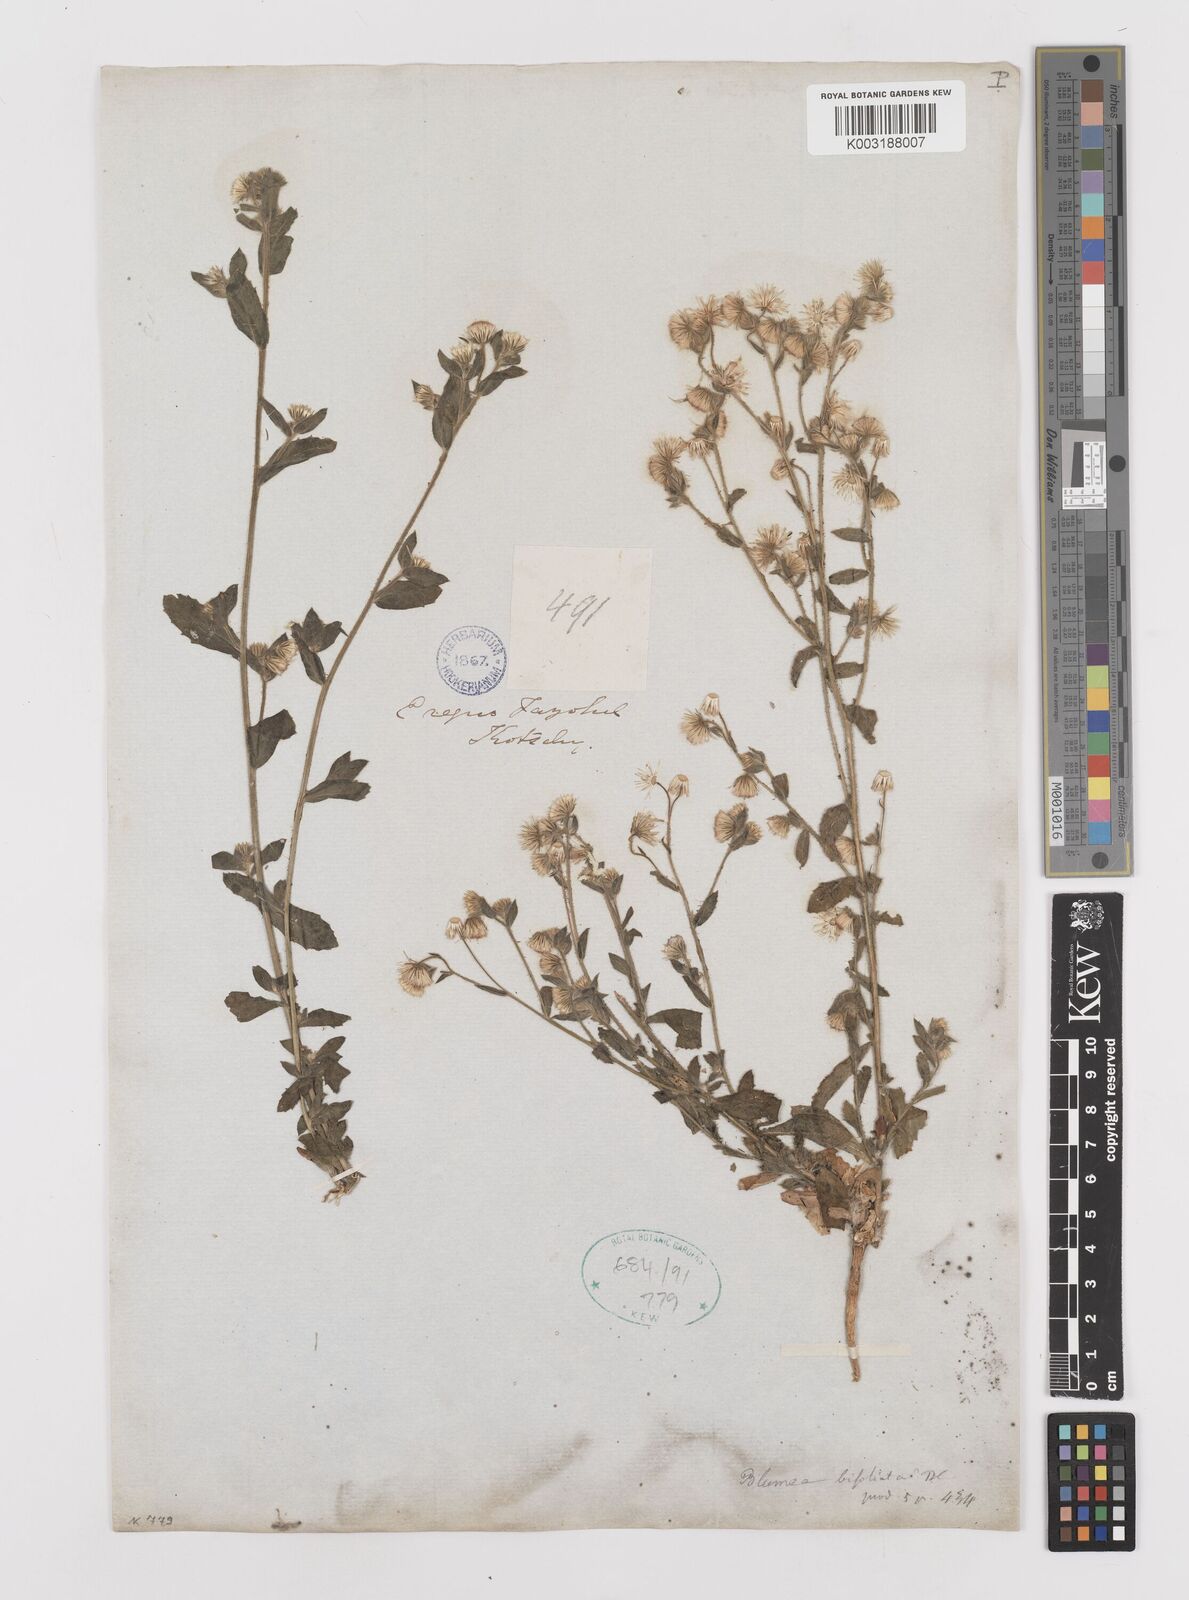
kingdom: Plantae
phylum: Tracheophyta
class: Magnoliopsida
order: Asterales
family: Asteraceae
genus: Laggera
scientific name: Laggera
